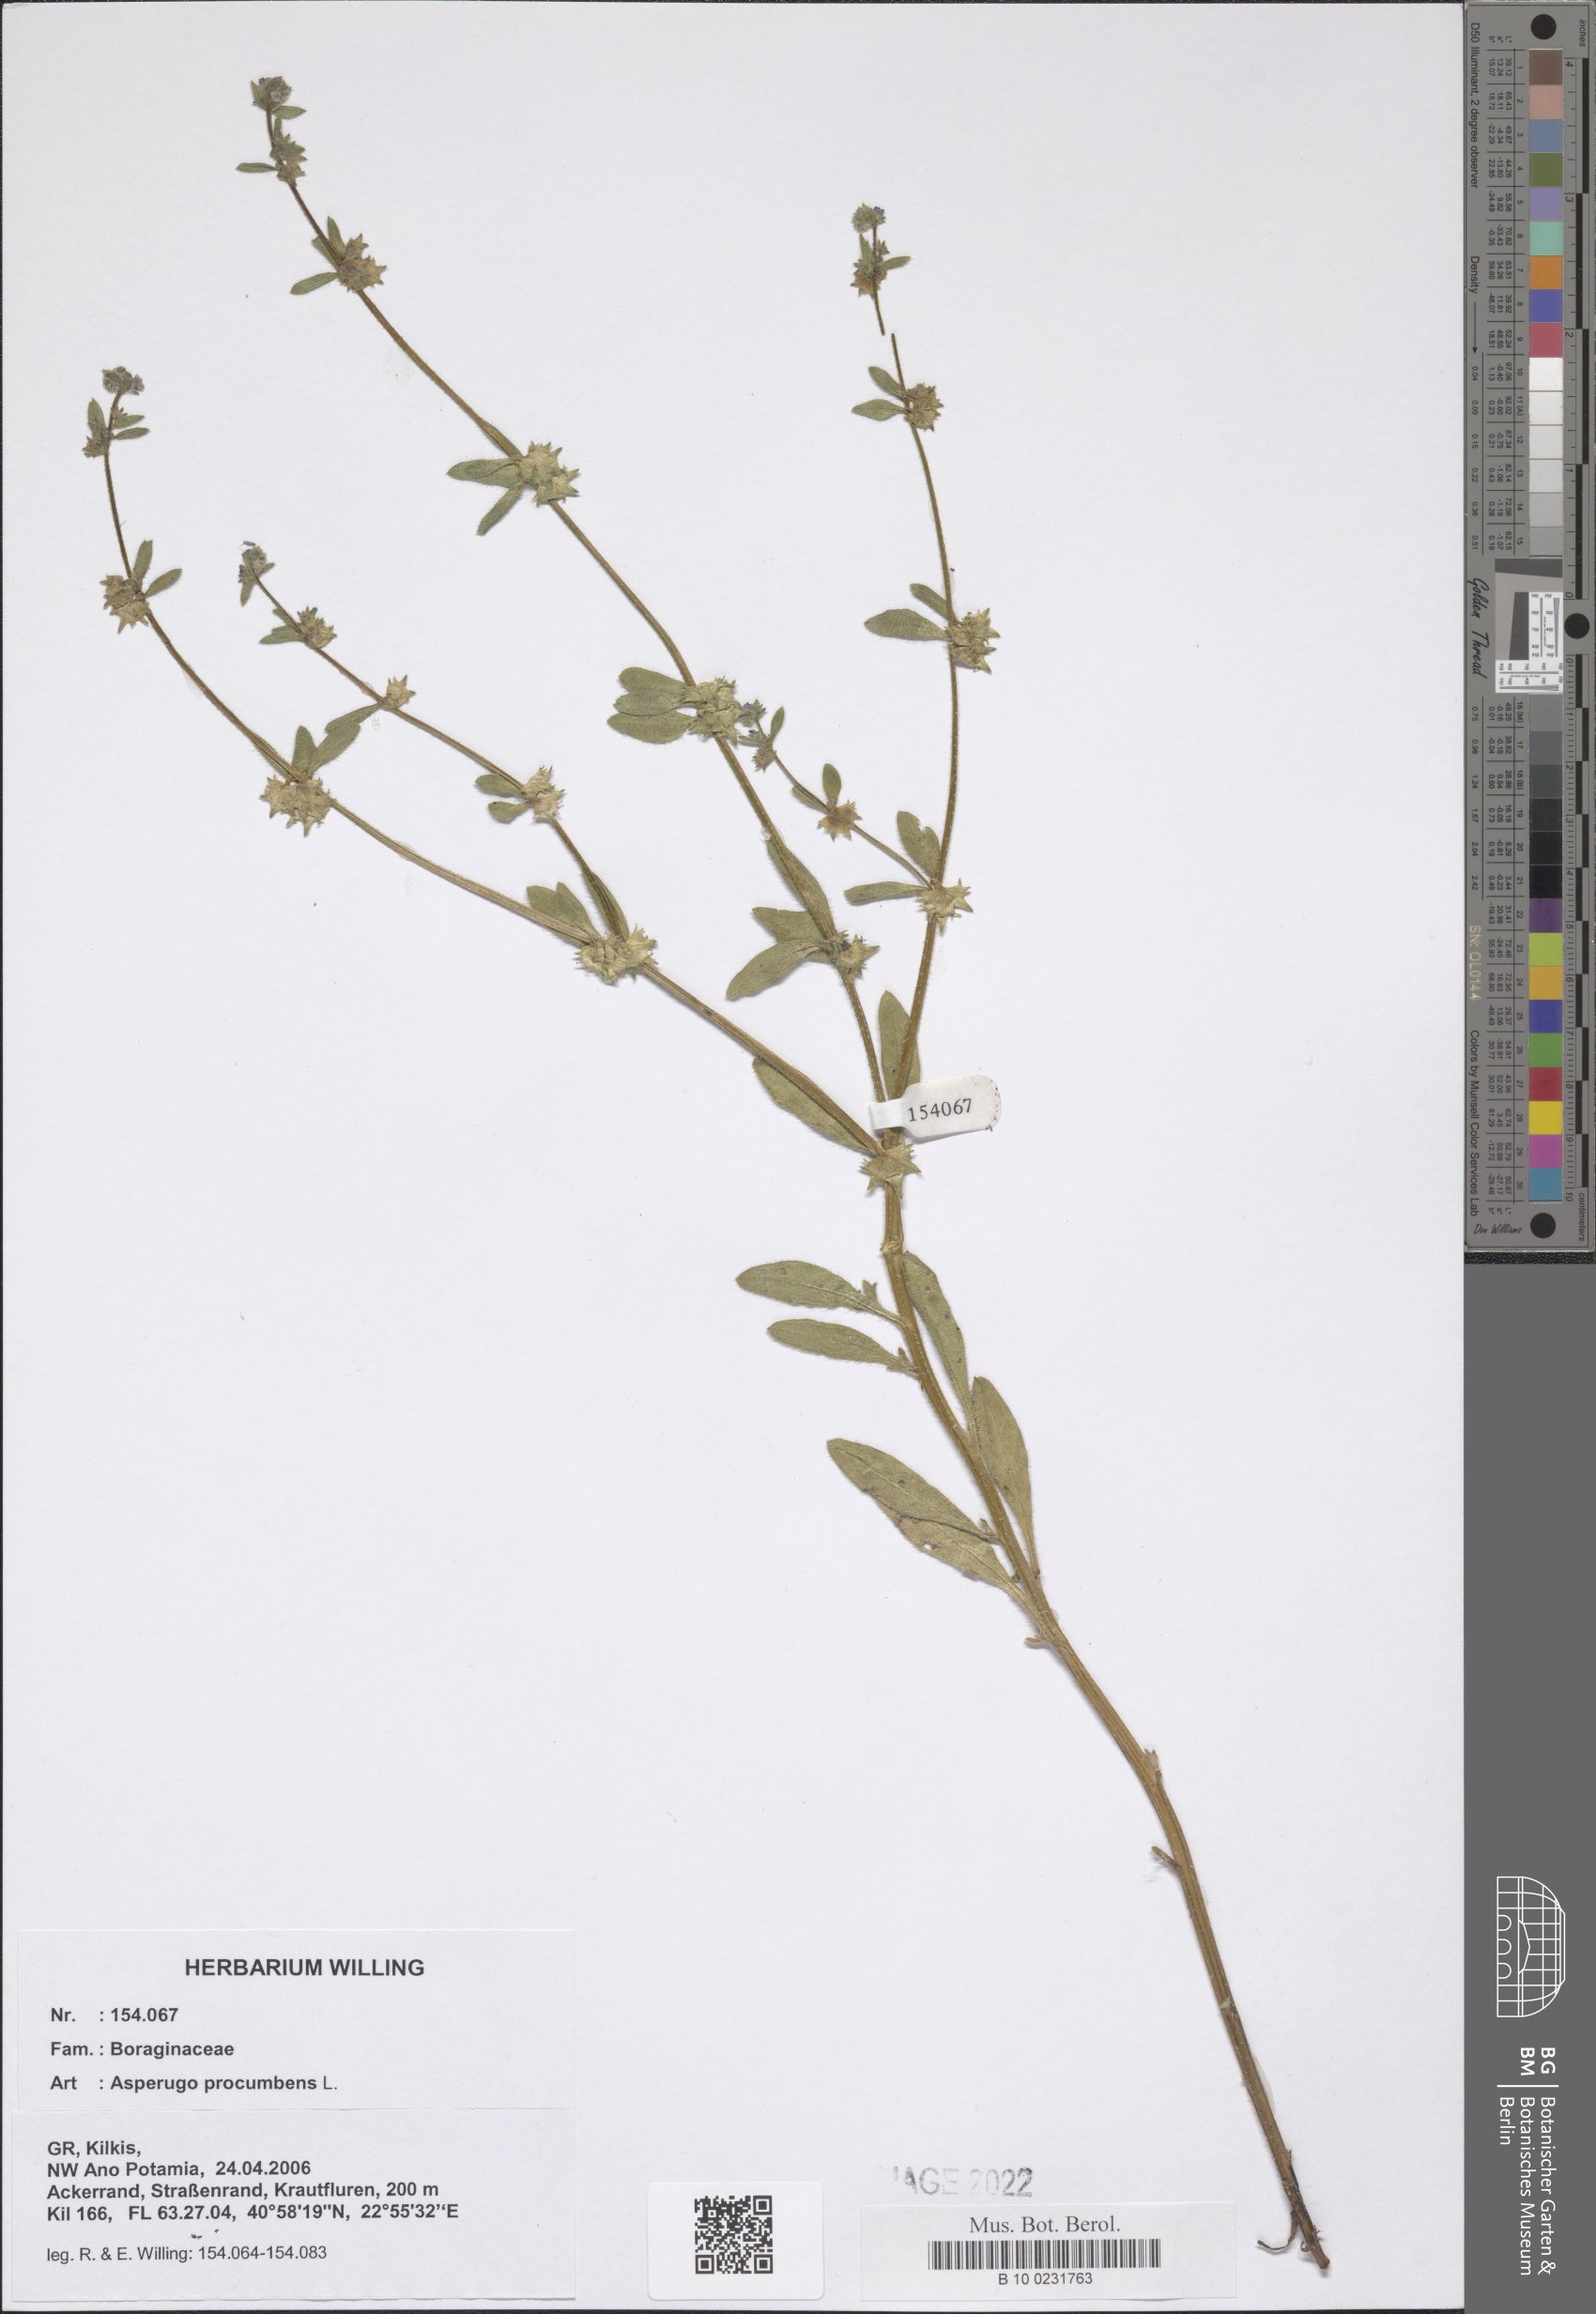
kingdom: Plantae
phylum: Tracheophyta
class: Magnoliopsida
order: Boraginales
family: Boraginaceae
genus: Asperugo
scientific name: Asperugo procumbens
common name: Madwort
